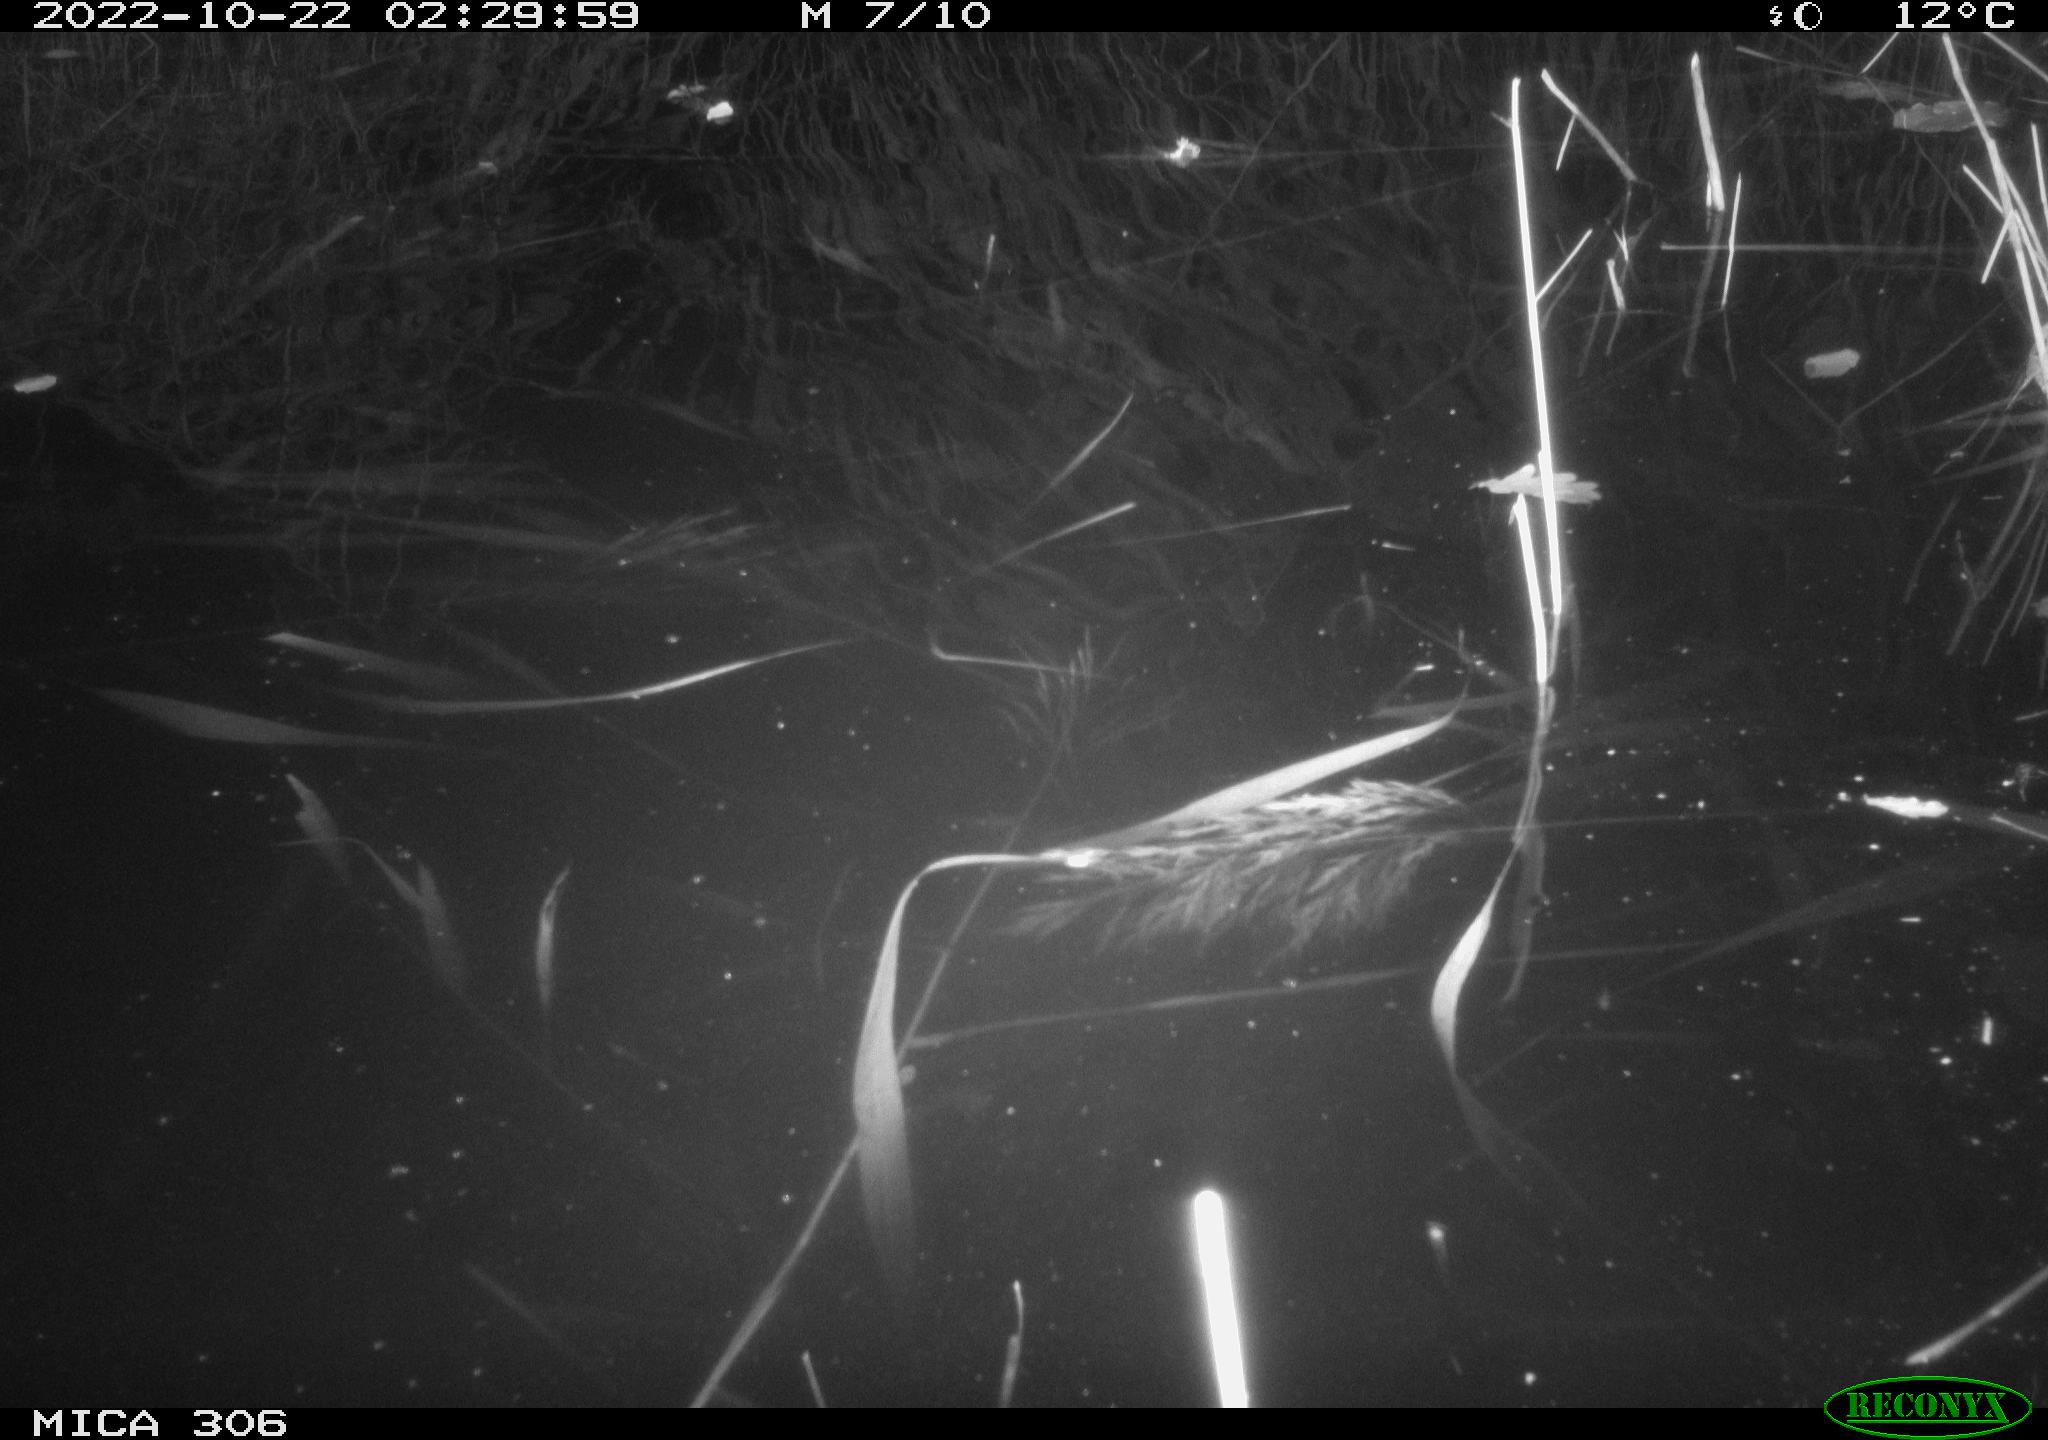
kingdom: Animalia
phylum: Chordata
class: Mammalia
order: Rodentia
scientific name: Rodentia
